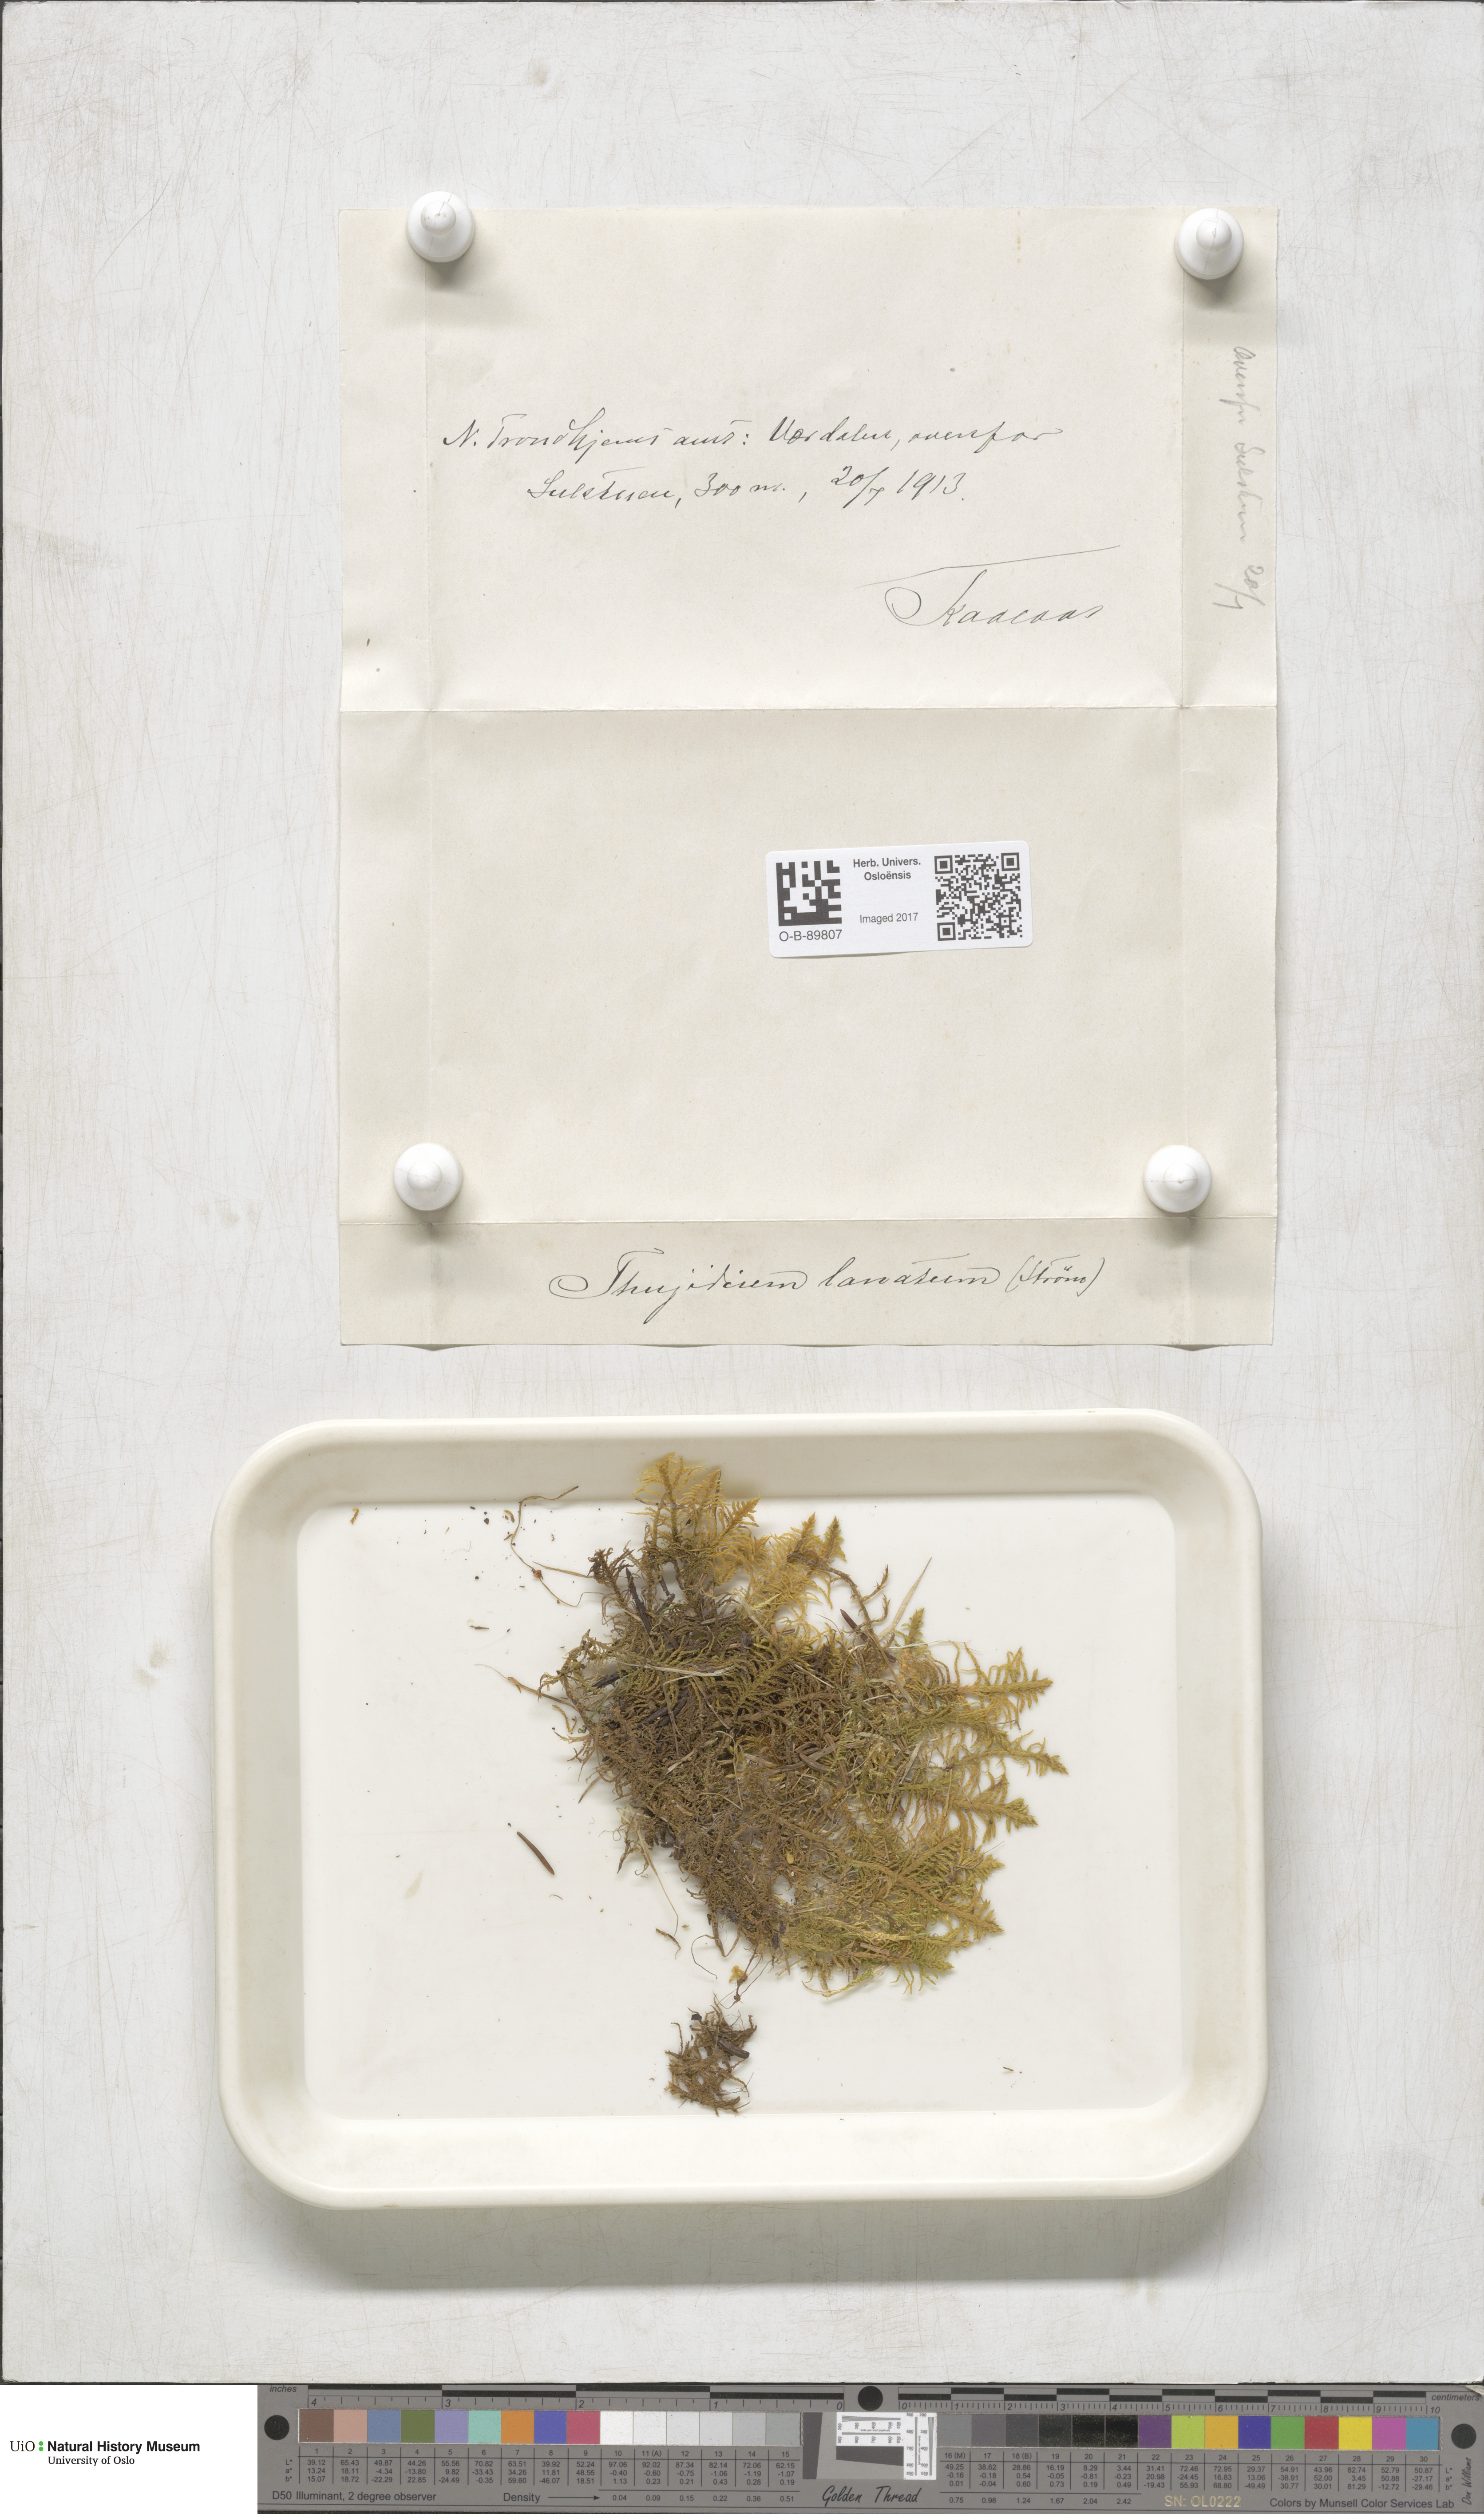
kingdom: Plantae
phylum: Bryophyta
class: Bryopsida
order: Hypnales
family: Helodiaceae
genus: Helodium
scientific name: Helodium blandowii
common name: Blandow's tamarisk-moss
